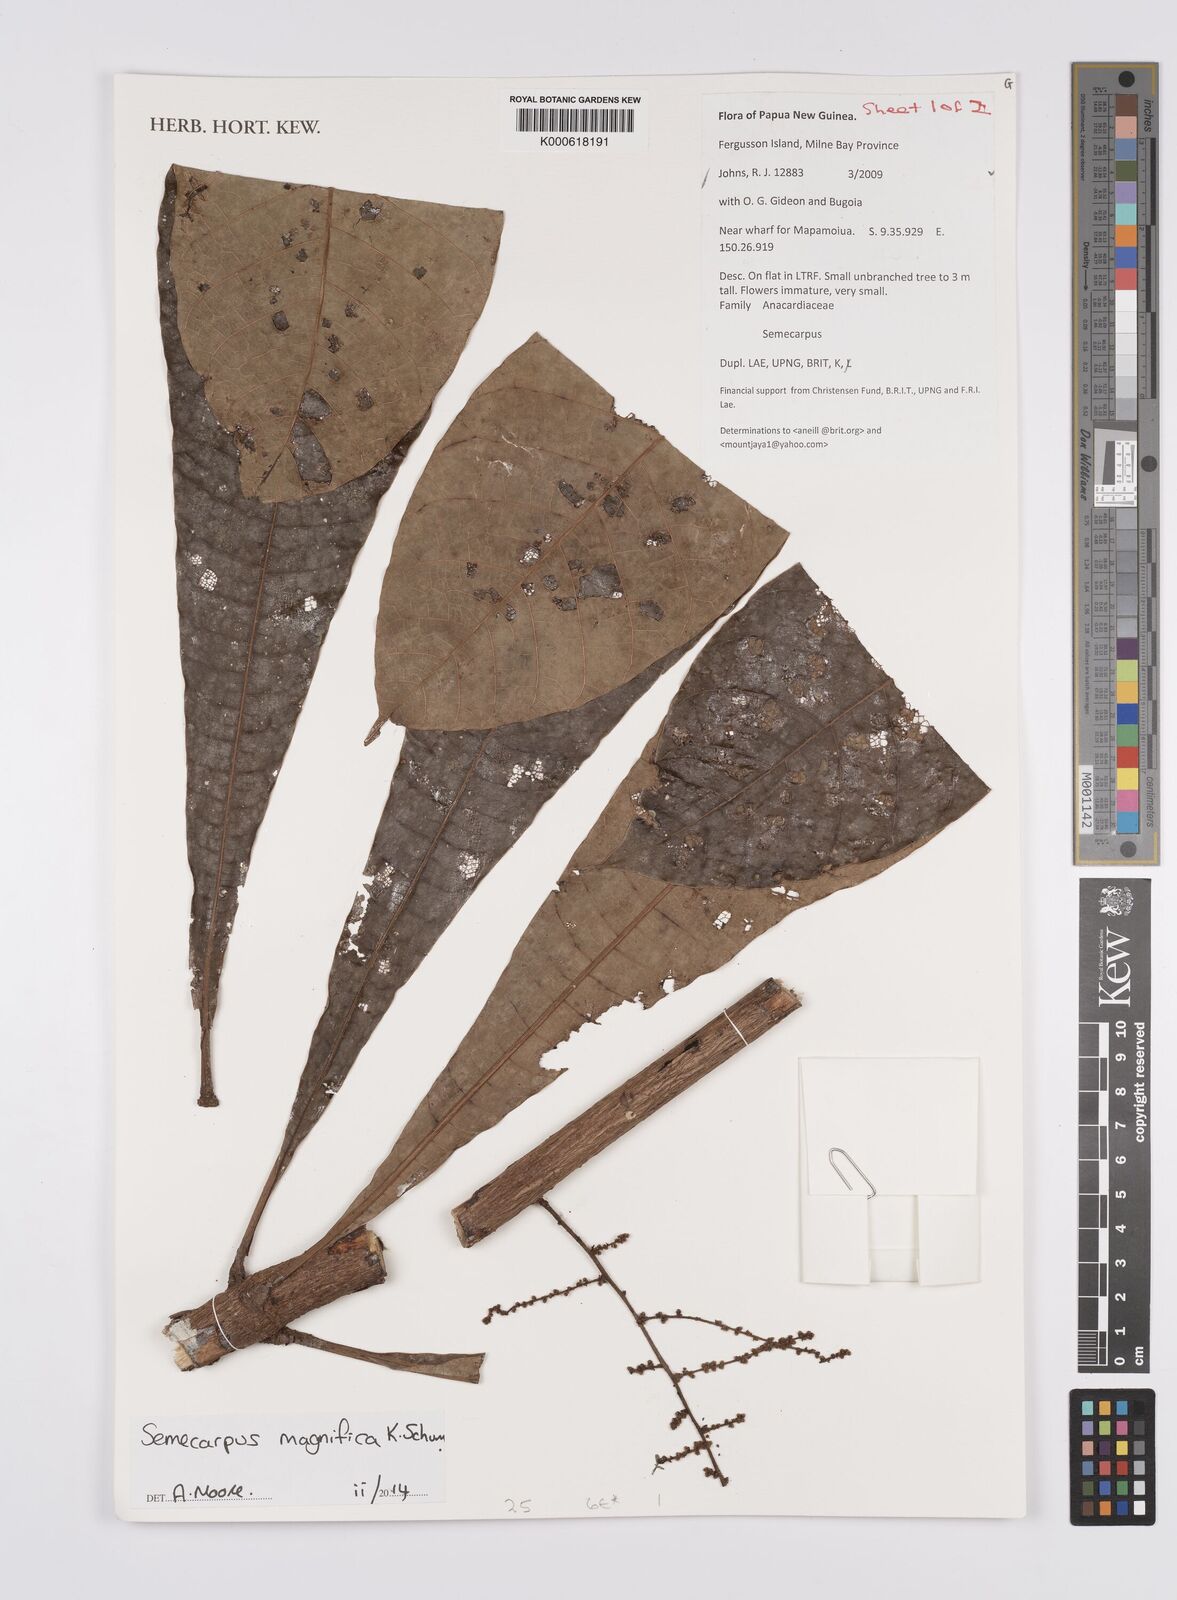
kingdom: Plantae
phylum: Tracheophyta
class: Magnoliopsida
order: Sapindales
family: Anacardiaceae
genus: Semecarpus
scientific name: Semecarpus magnificus
